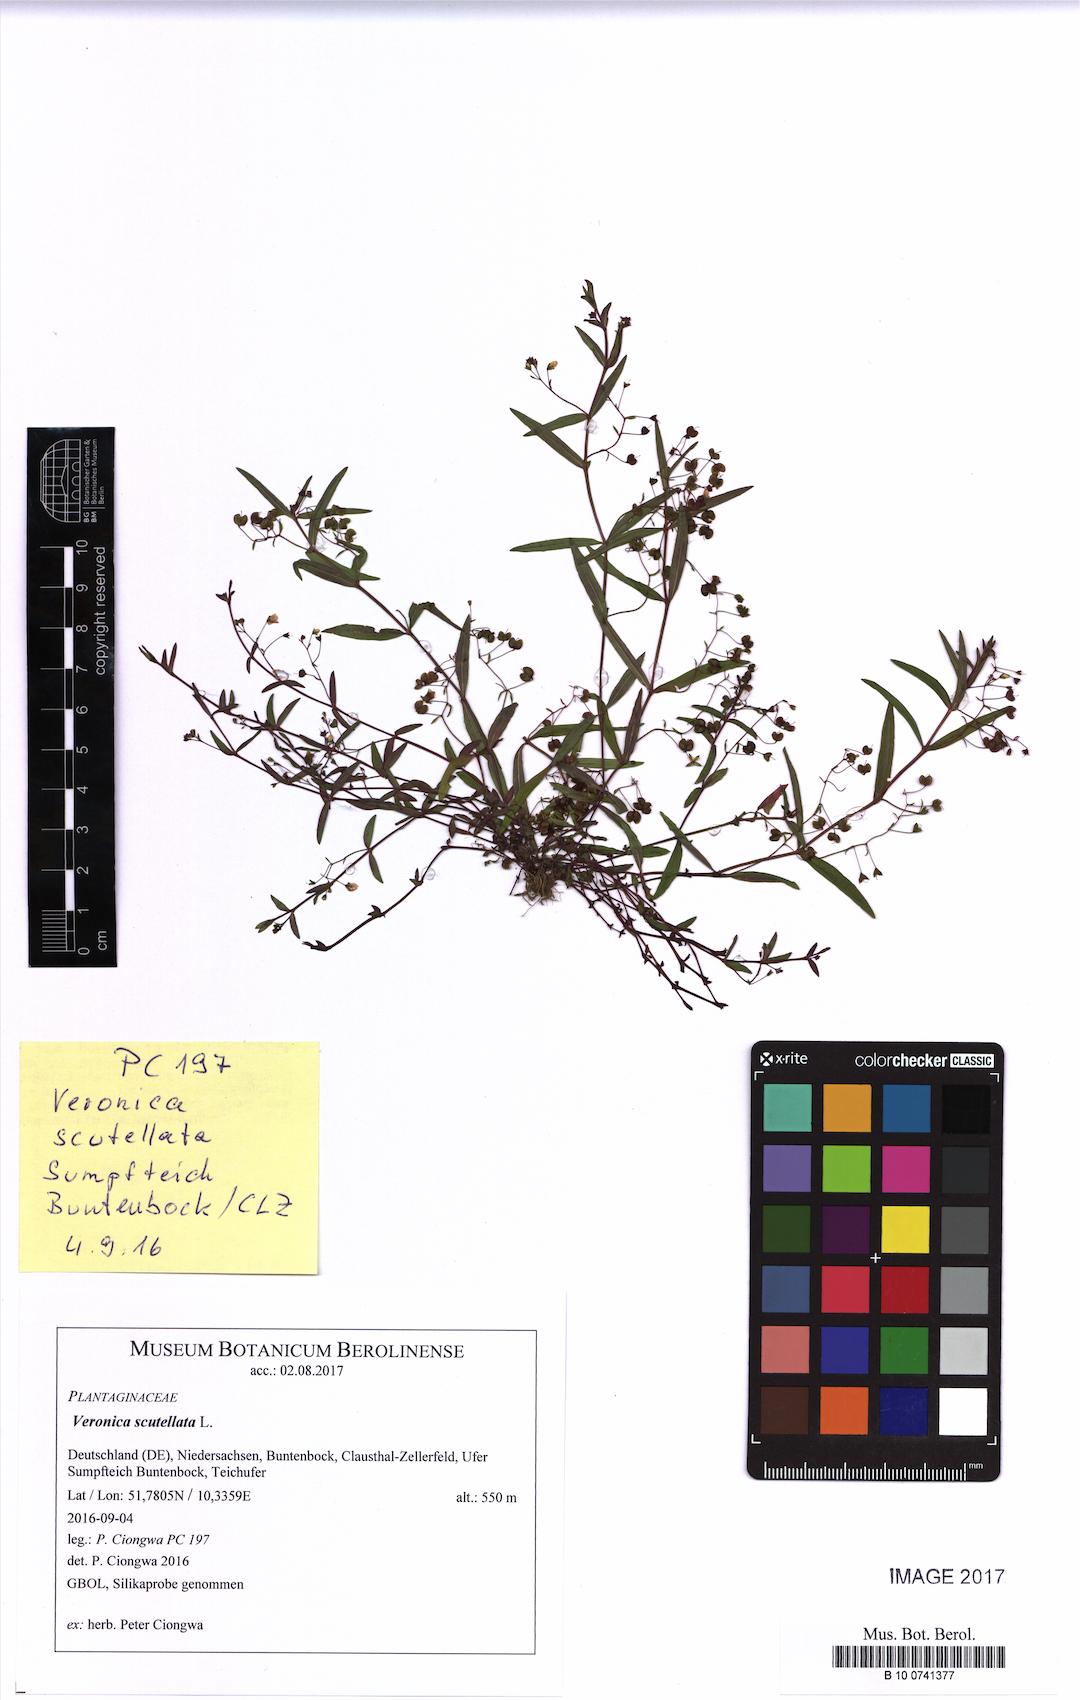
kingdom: Plantae
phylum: Tracheophyta
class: Magnoliopsida
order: Lamiales
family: Plantaginaceae
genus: Veronica
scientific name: Veronica scutellata
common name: Marsh speedwell
